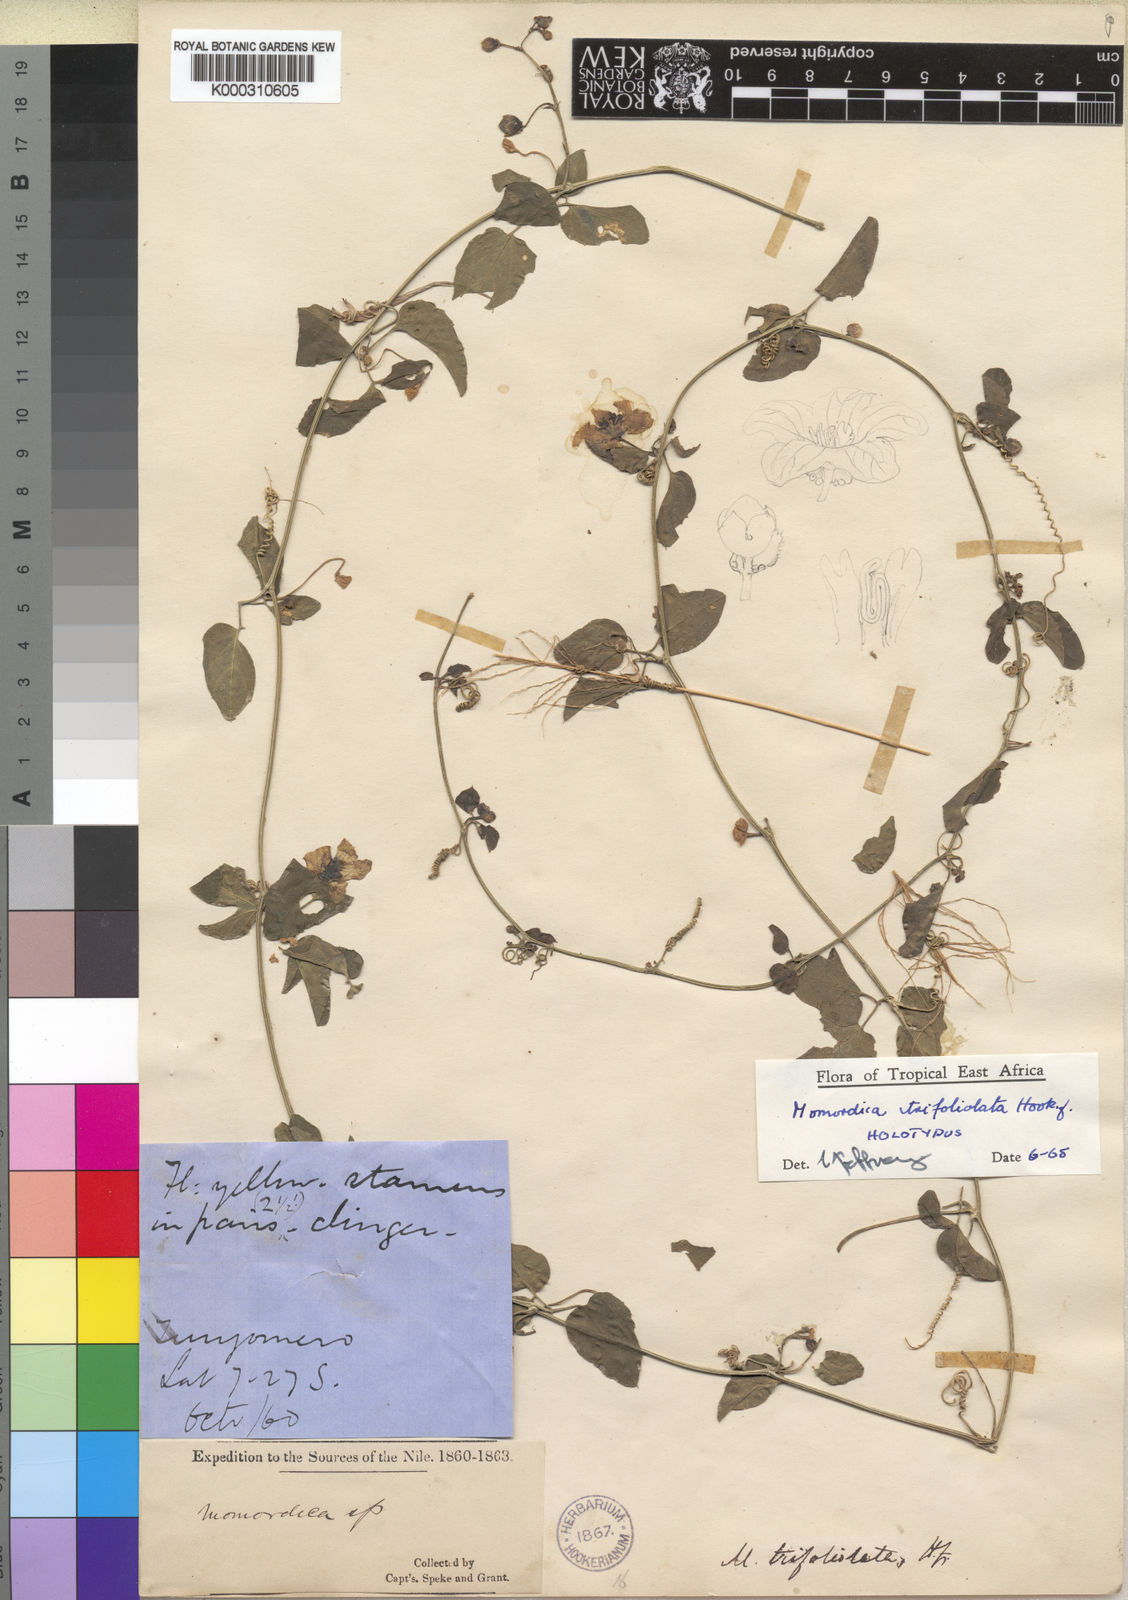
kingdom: Plantae
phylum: Tracheophyta
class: Magnoliopsida
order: Cucurbitales
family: Cucurbitaceae
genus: Momordica
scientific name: Momordica trifoliolata
